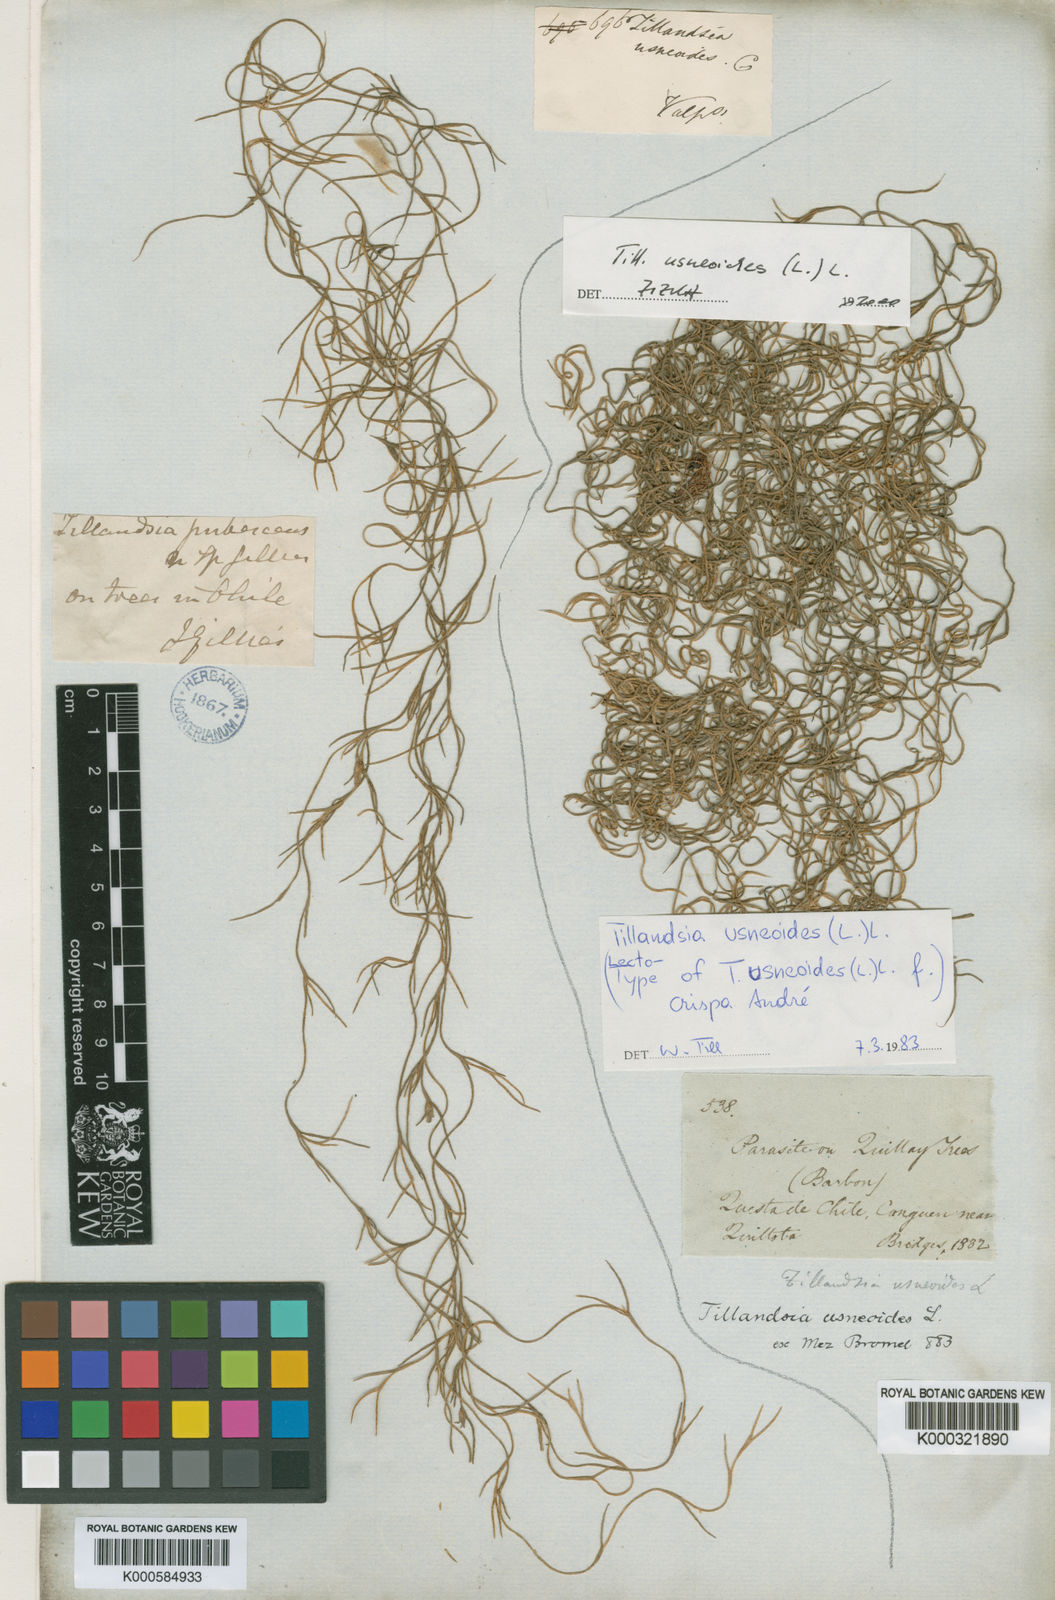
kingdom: Plantae
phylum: Tracheophyta
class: Liliopsida
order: Poales
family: Bromeliaceae
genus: Tillandsia
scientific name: Tillandsia usneoides
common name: Spanish moss
